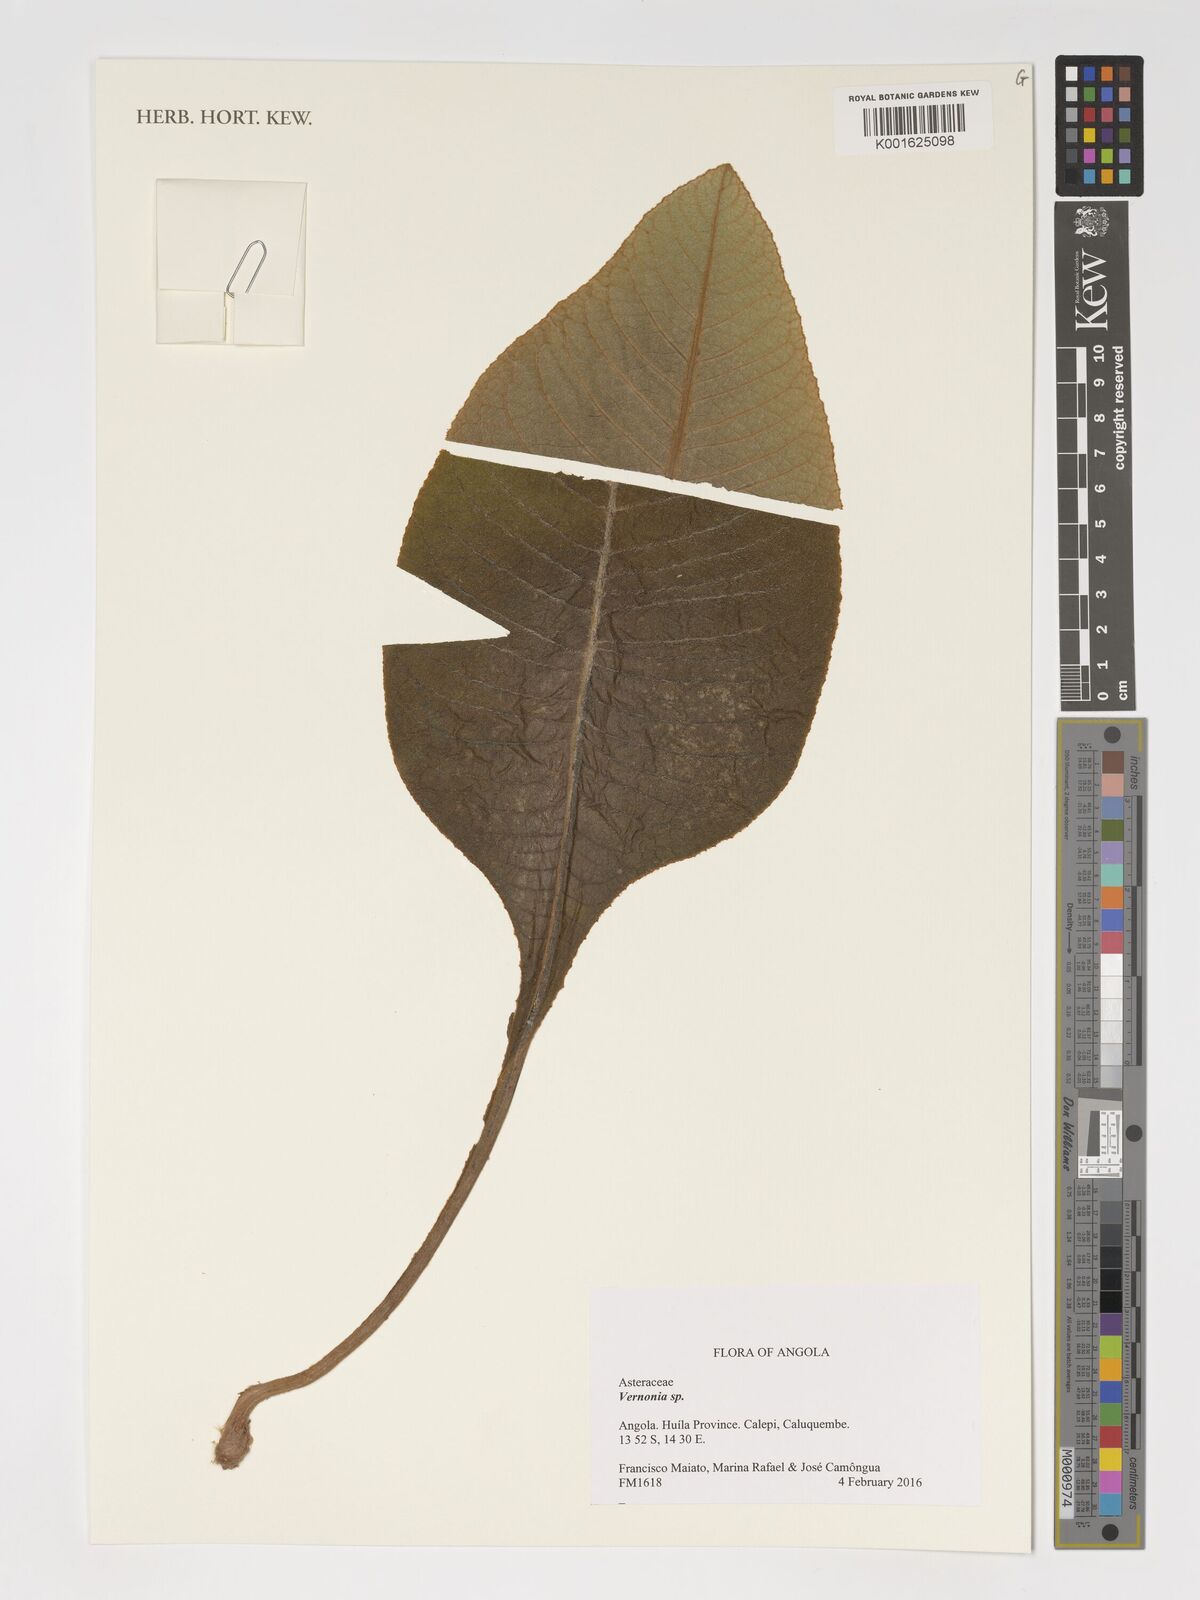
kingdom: Plantae
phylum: Tracheophyta
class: Magnoliopsida
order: Asterales
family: Asteraceae
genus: Vernonia
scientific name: Vernonia
